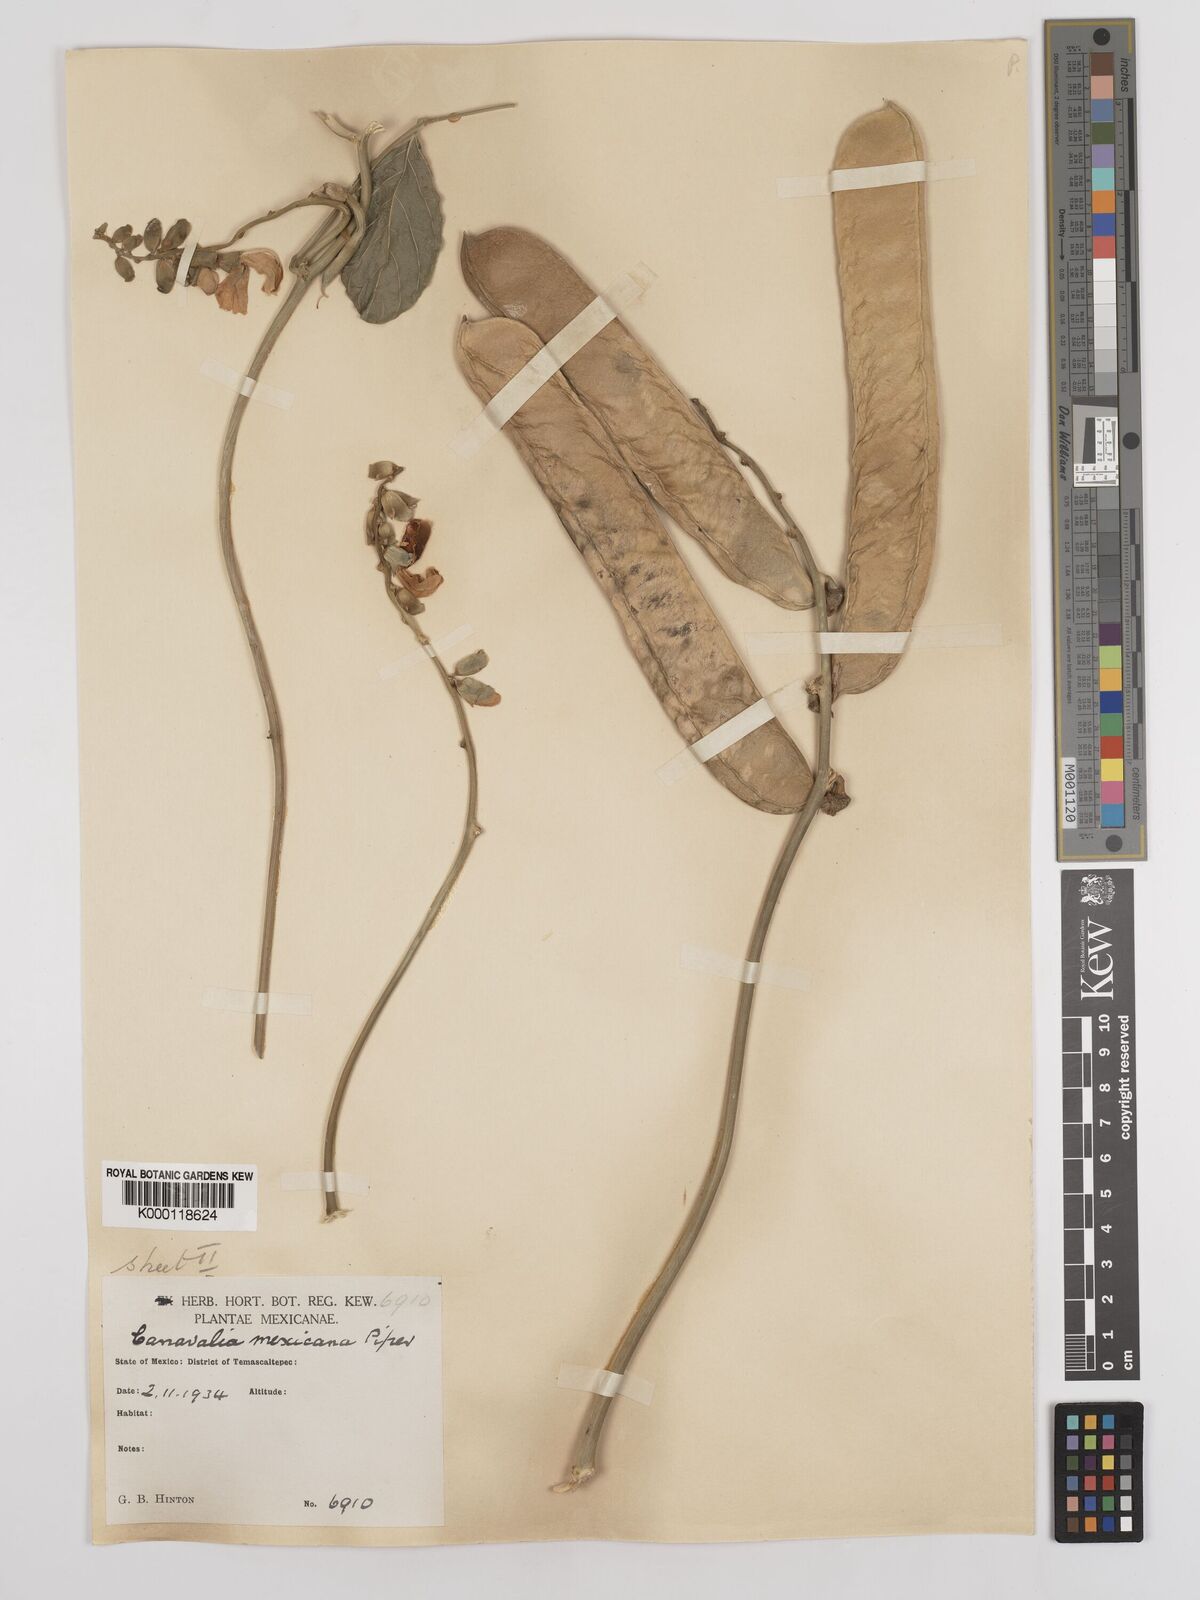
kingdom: Plantae
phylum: Tracheophyta
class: Magnoliopsida
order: Fabales
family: Fabaceae
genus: Canavalia
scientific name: Canavalia brasiliensis
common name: Barbicou-bean
